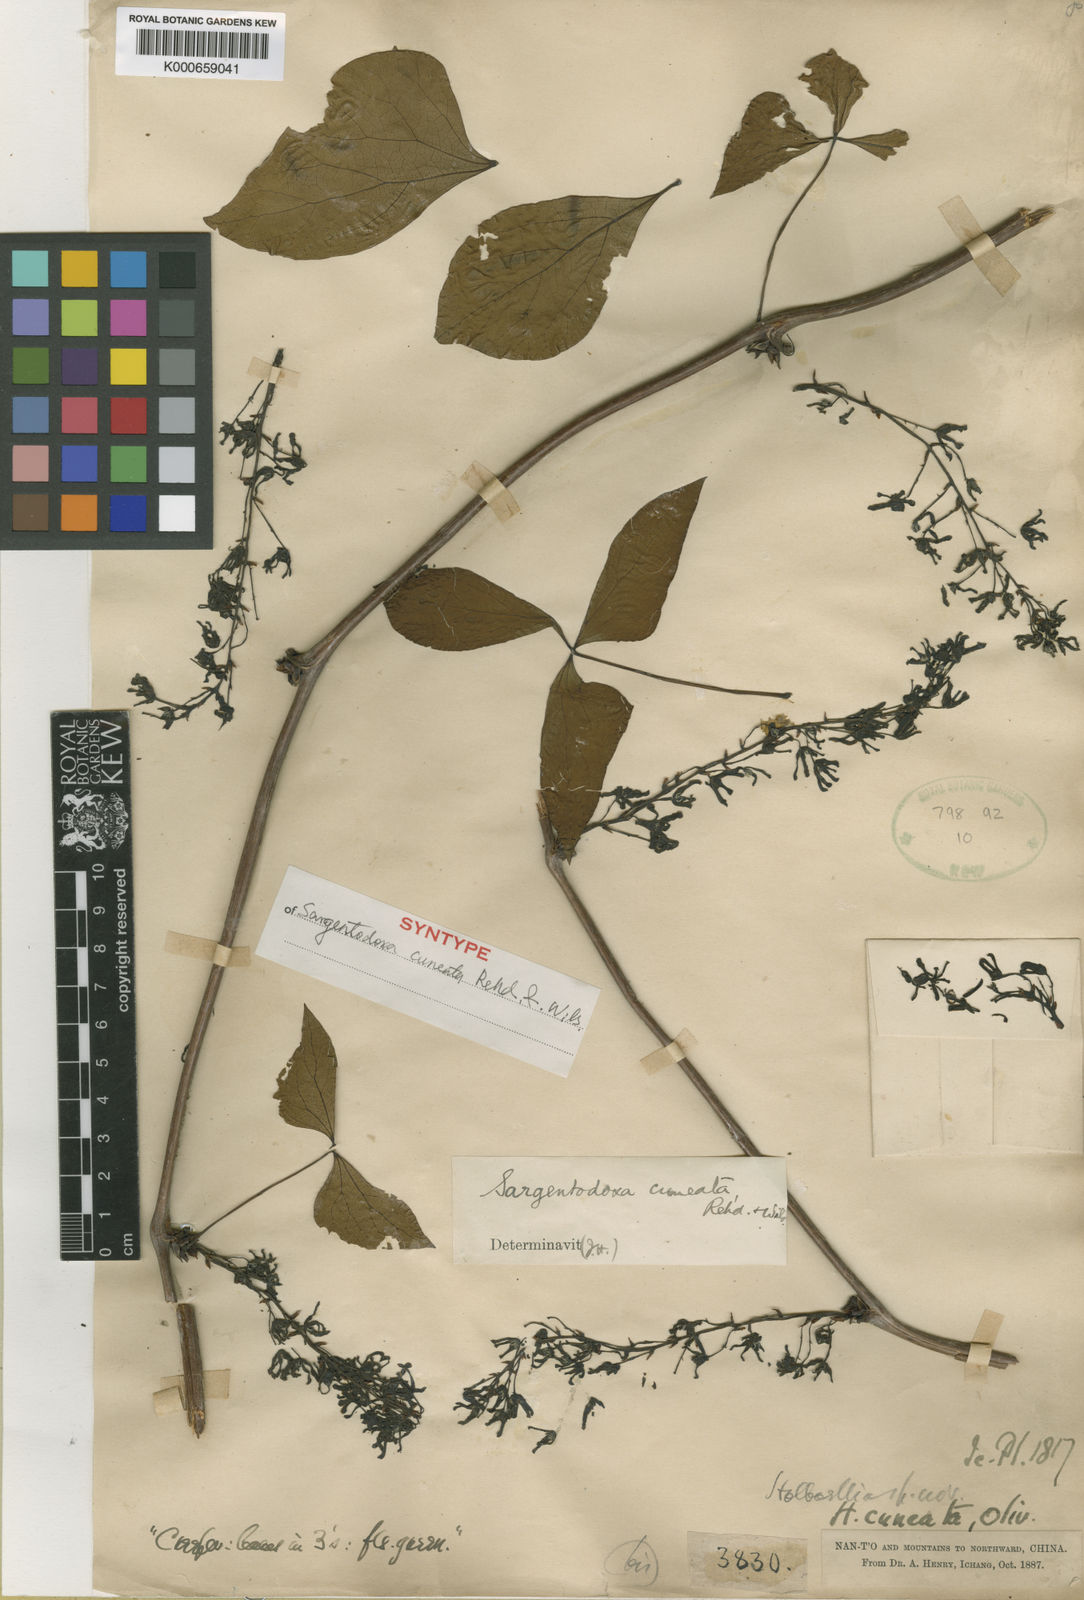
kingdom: Plantae
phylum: Tracheophyta
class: Magnoliopsida
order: Ranunculales
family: Lardizabalaceae
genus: Sargentodoxa
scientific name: Sargentodoxa cuneata
